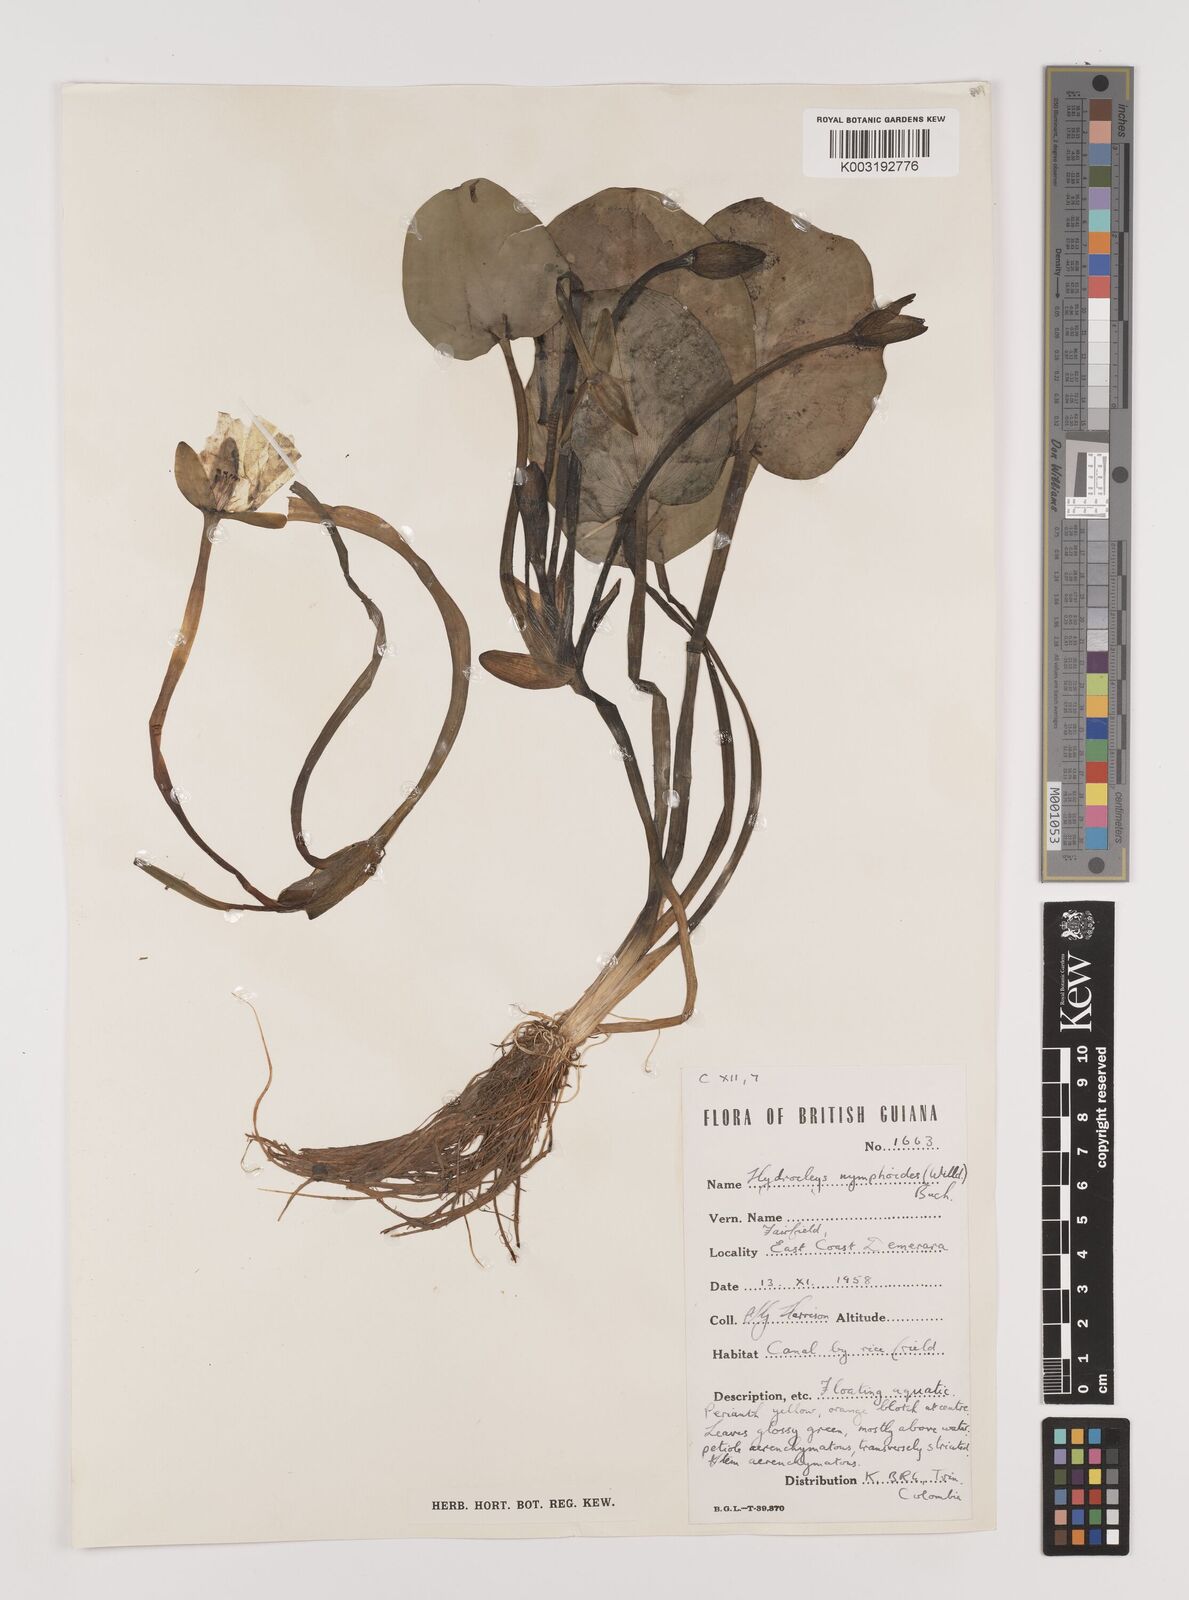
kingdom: Plantae
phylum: Tracheophyta
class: Liliopsida
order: Alismatales
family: Alismataceae
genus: Hydrocleys
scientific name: Hydrocleys nymphoides
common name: Water-poppy
